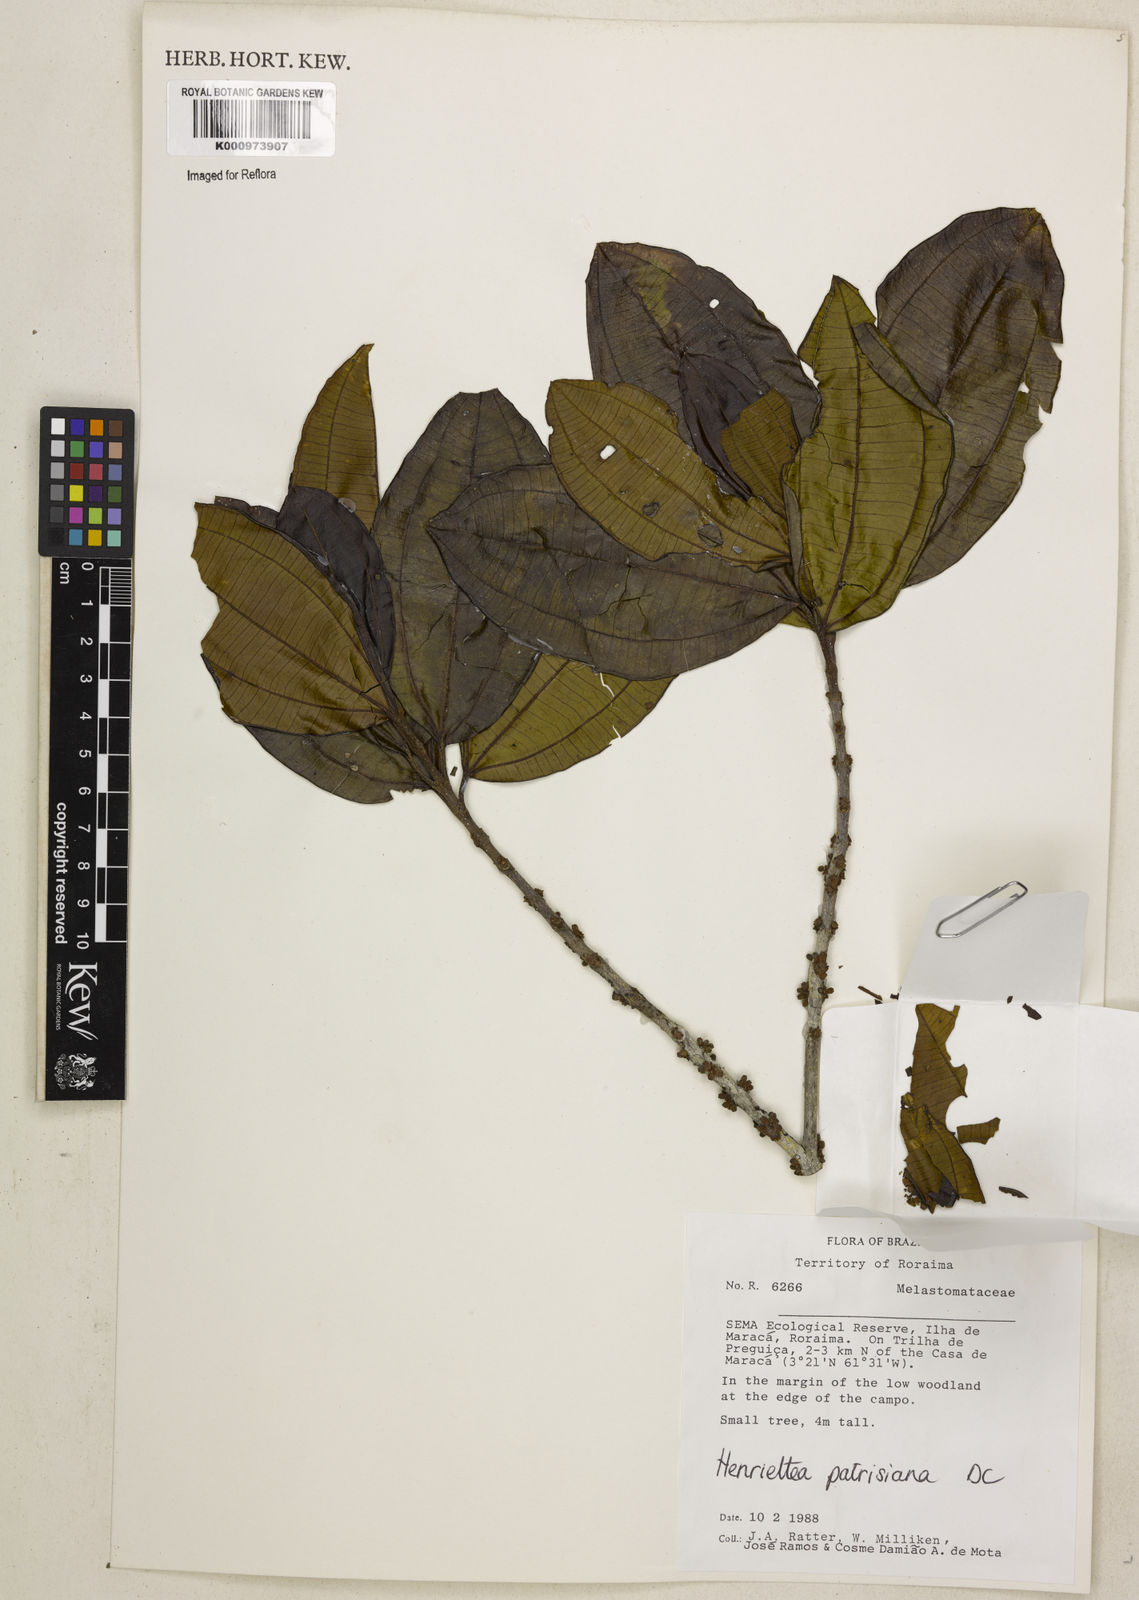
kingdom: Plantae
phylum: Tracheophyta
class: Magnoliopsida
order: Myrtales
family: Melastomataceae
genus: Henriettea
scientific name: Henriettea patrisiana
